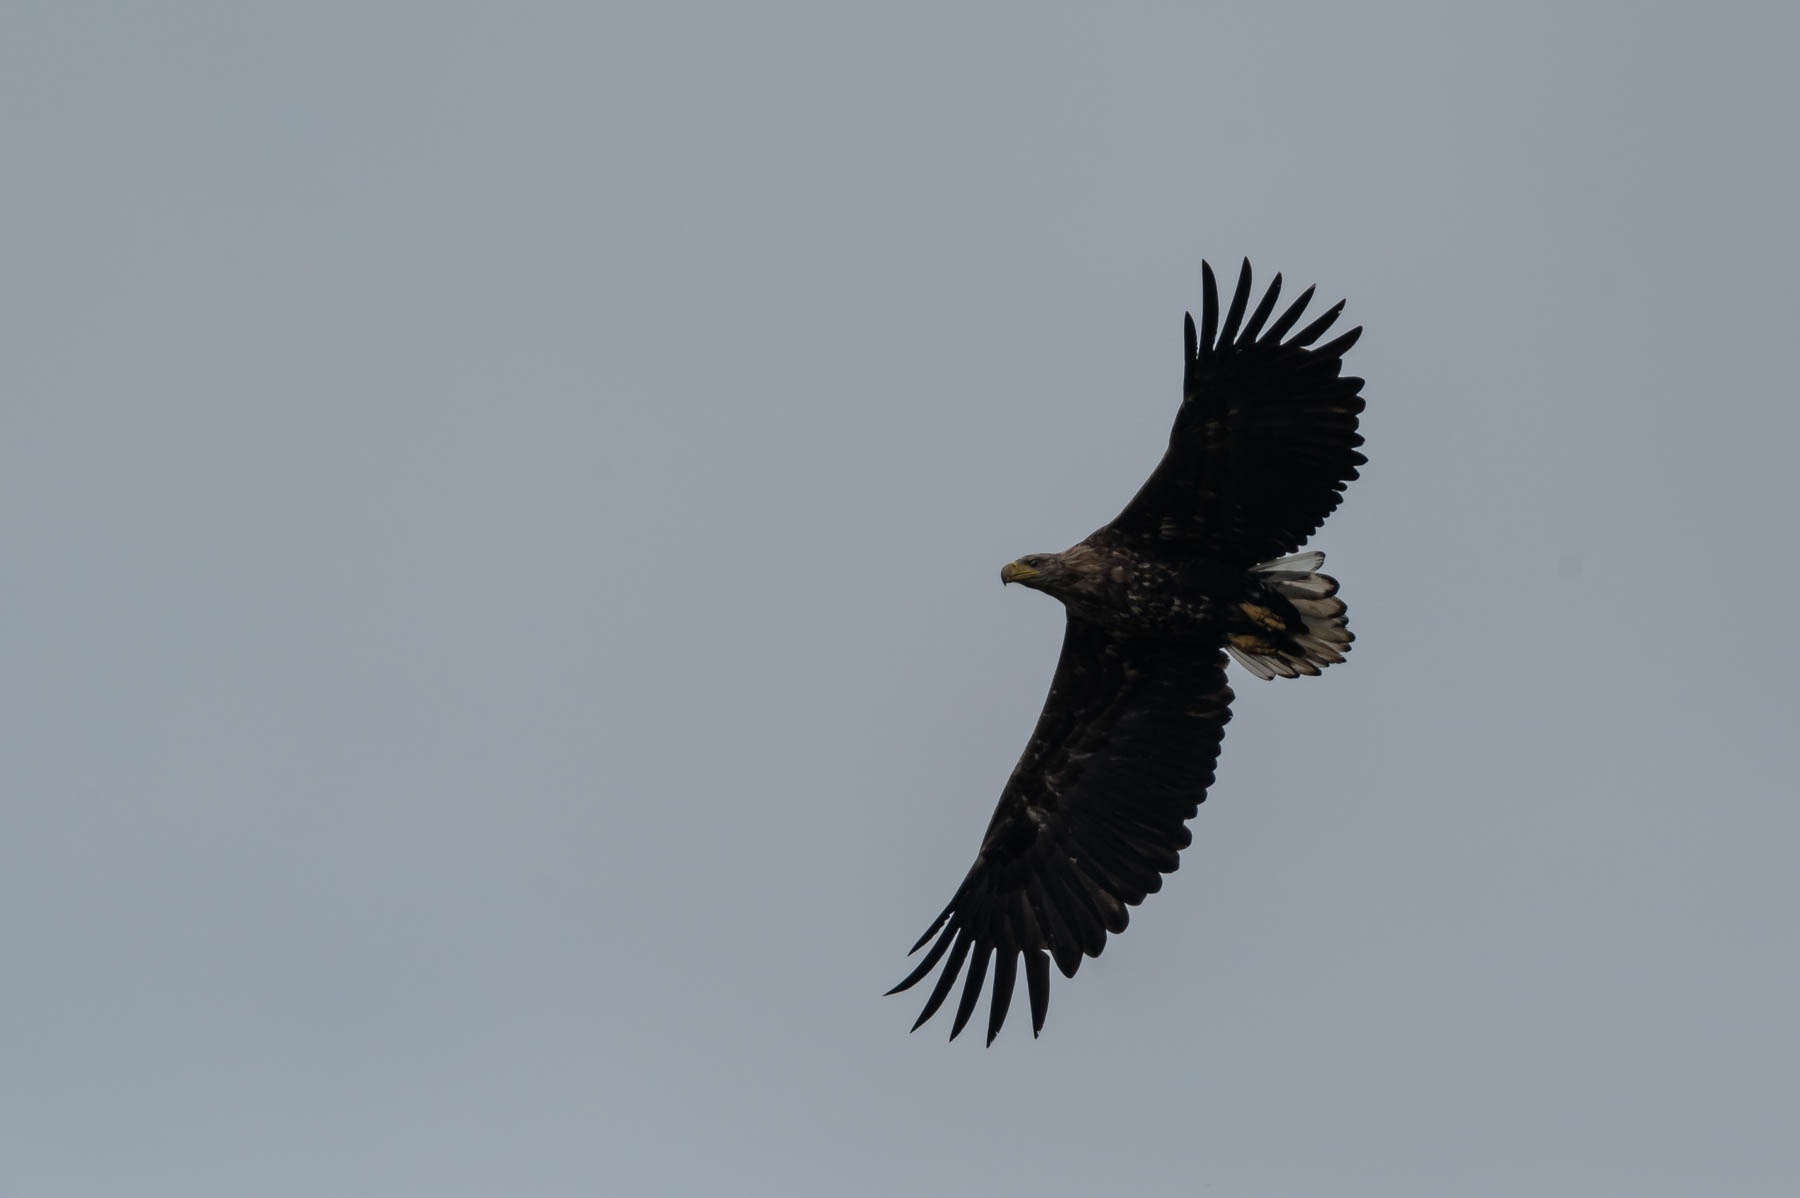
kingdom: Animalia
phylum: Chordata
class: Aves
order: Accipitriformes
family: Accipitridae
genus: Haliaeetus
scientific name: Haliaeetus albicilla
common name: Havørn
